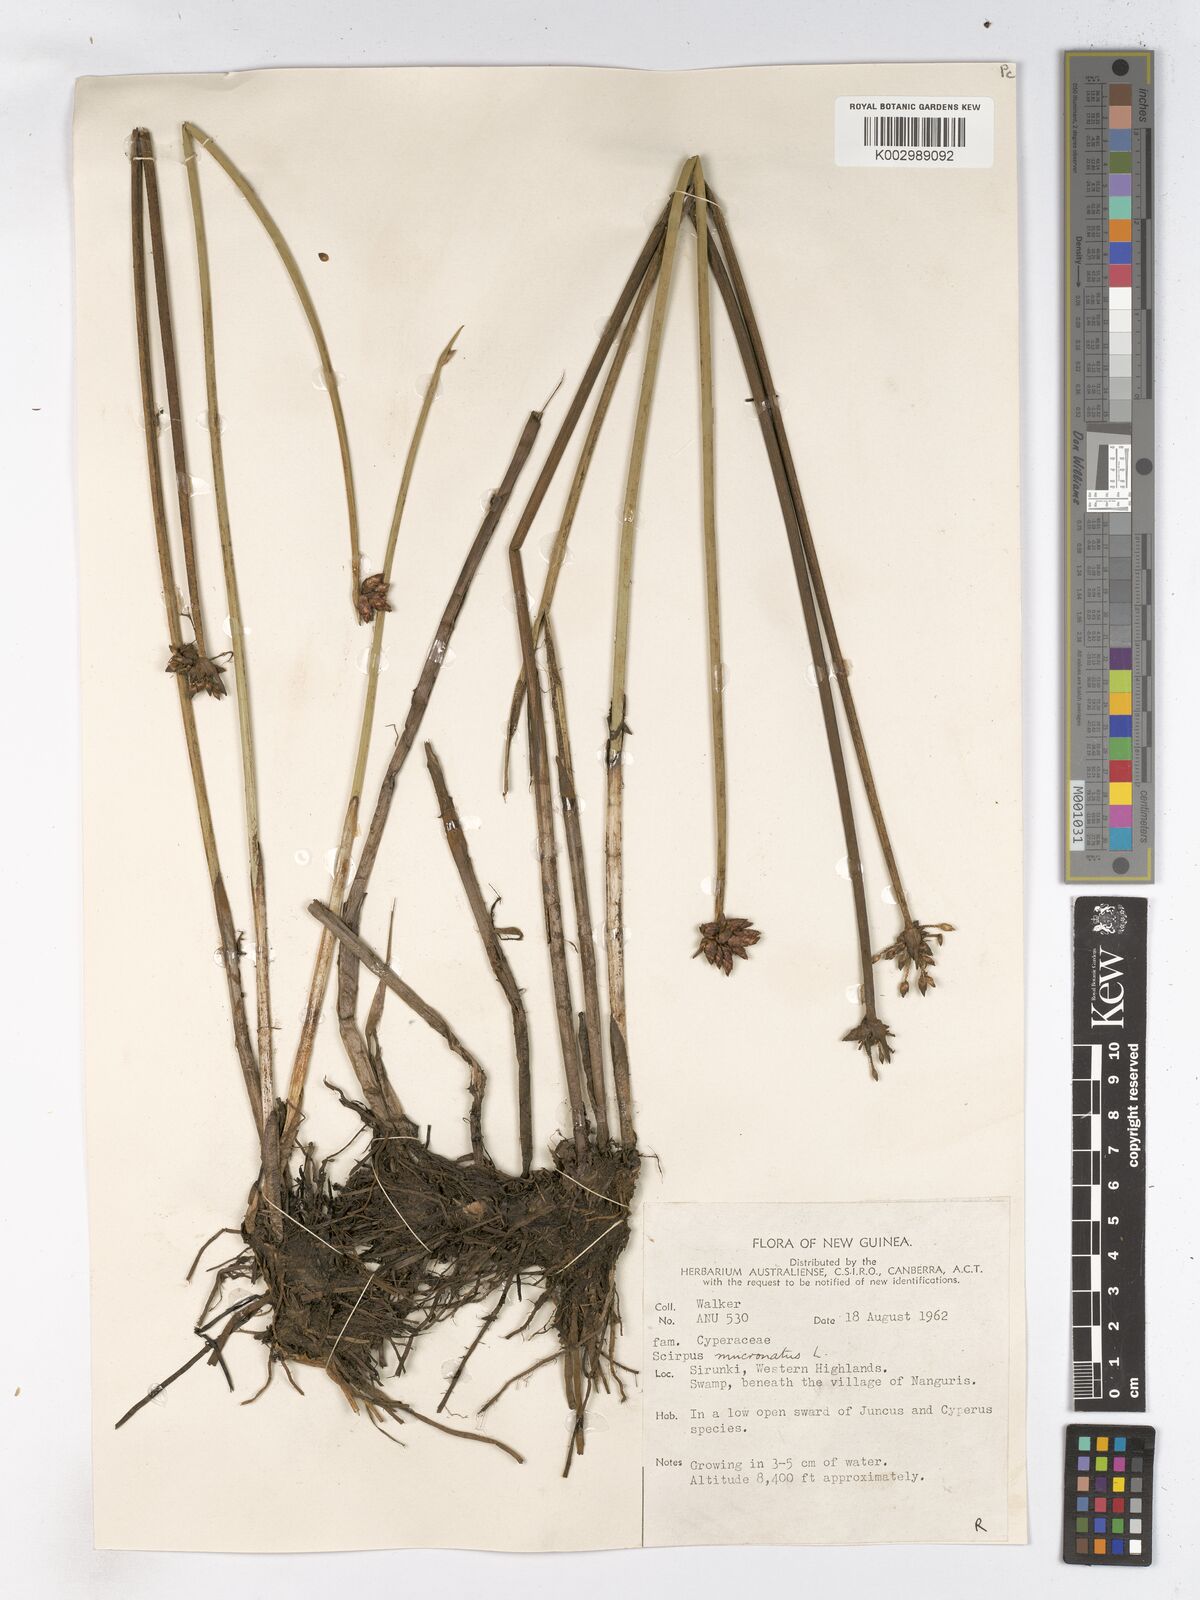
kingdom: Plantae
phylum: Tracheophyta
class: Liliopsida
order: Poales
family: Cyperaceae
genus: Schoenoplectiella
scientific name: Schoenoplectiella mucronata
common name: Bog bulrush
